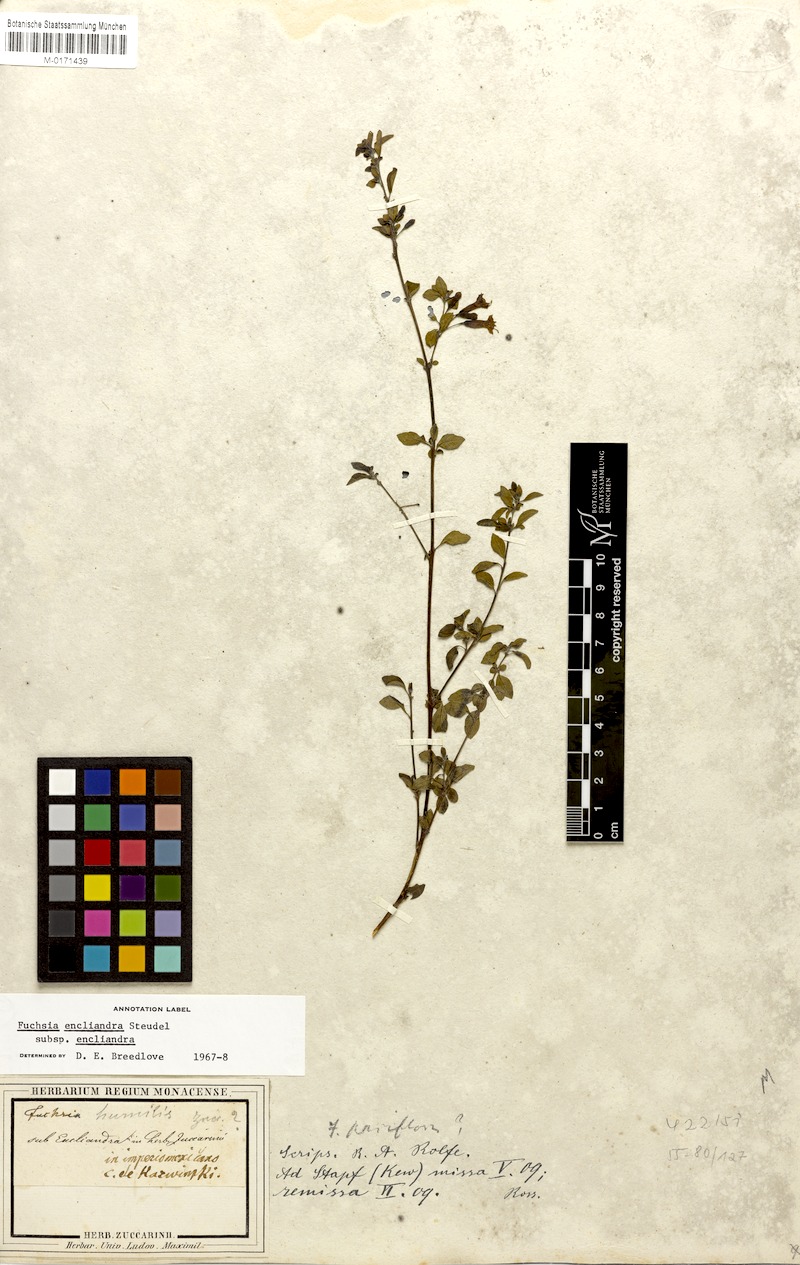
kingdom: Plantae
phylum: Tracheophyta
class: Magnoliopsida
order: Myrtales
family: Onagraceae
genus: Fuchsia
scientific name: Fuchsia encliandra
